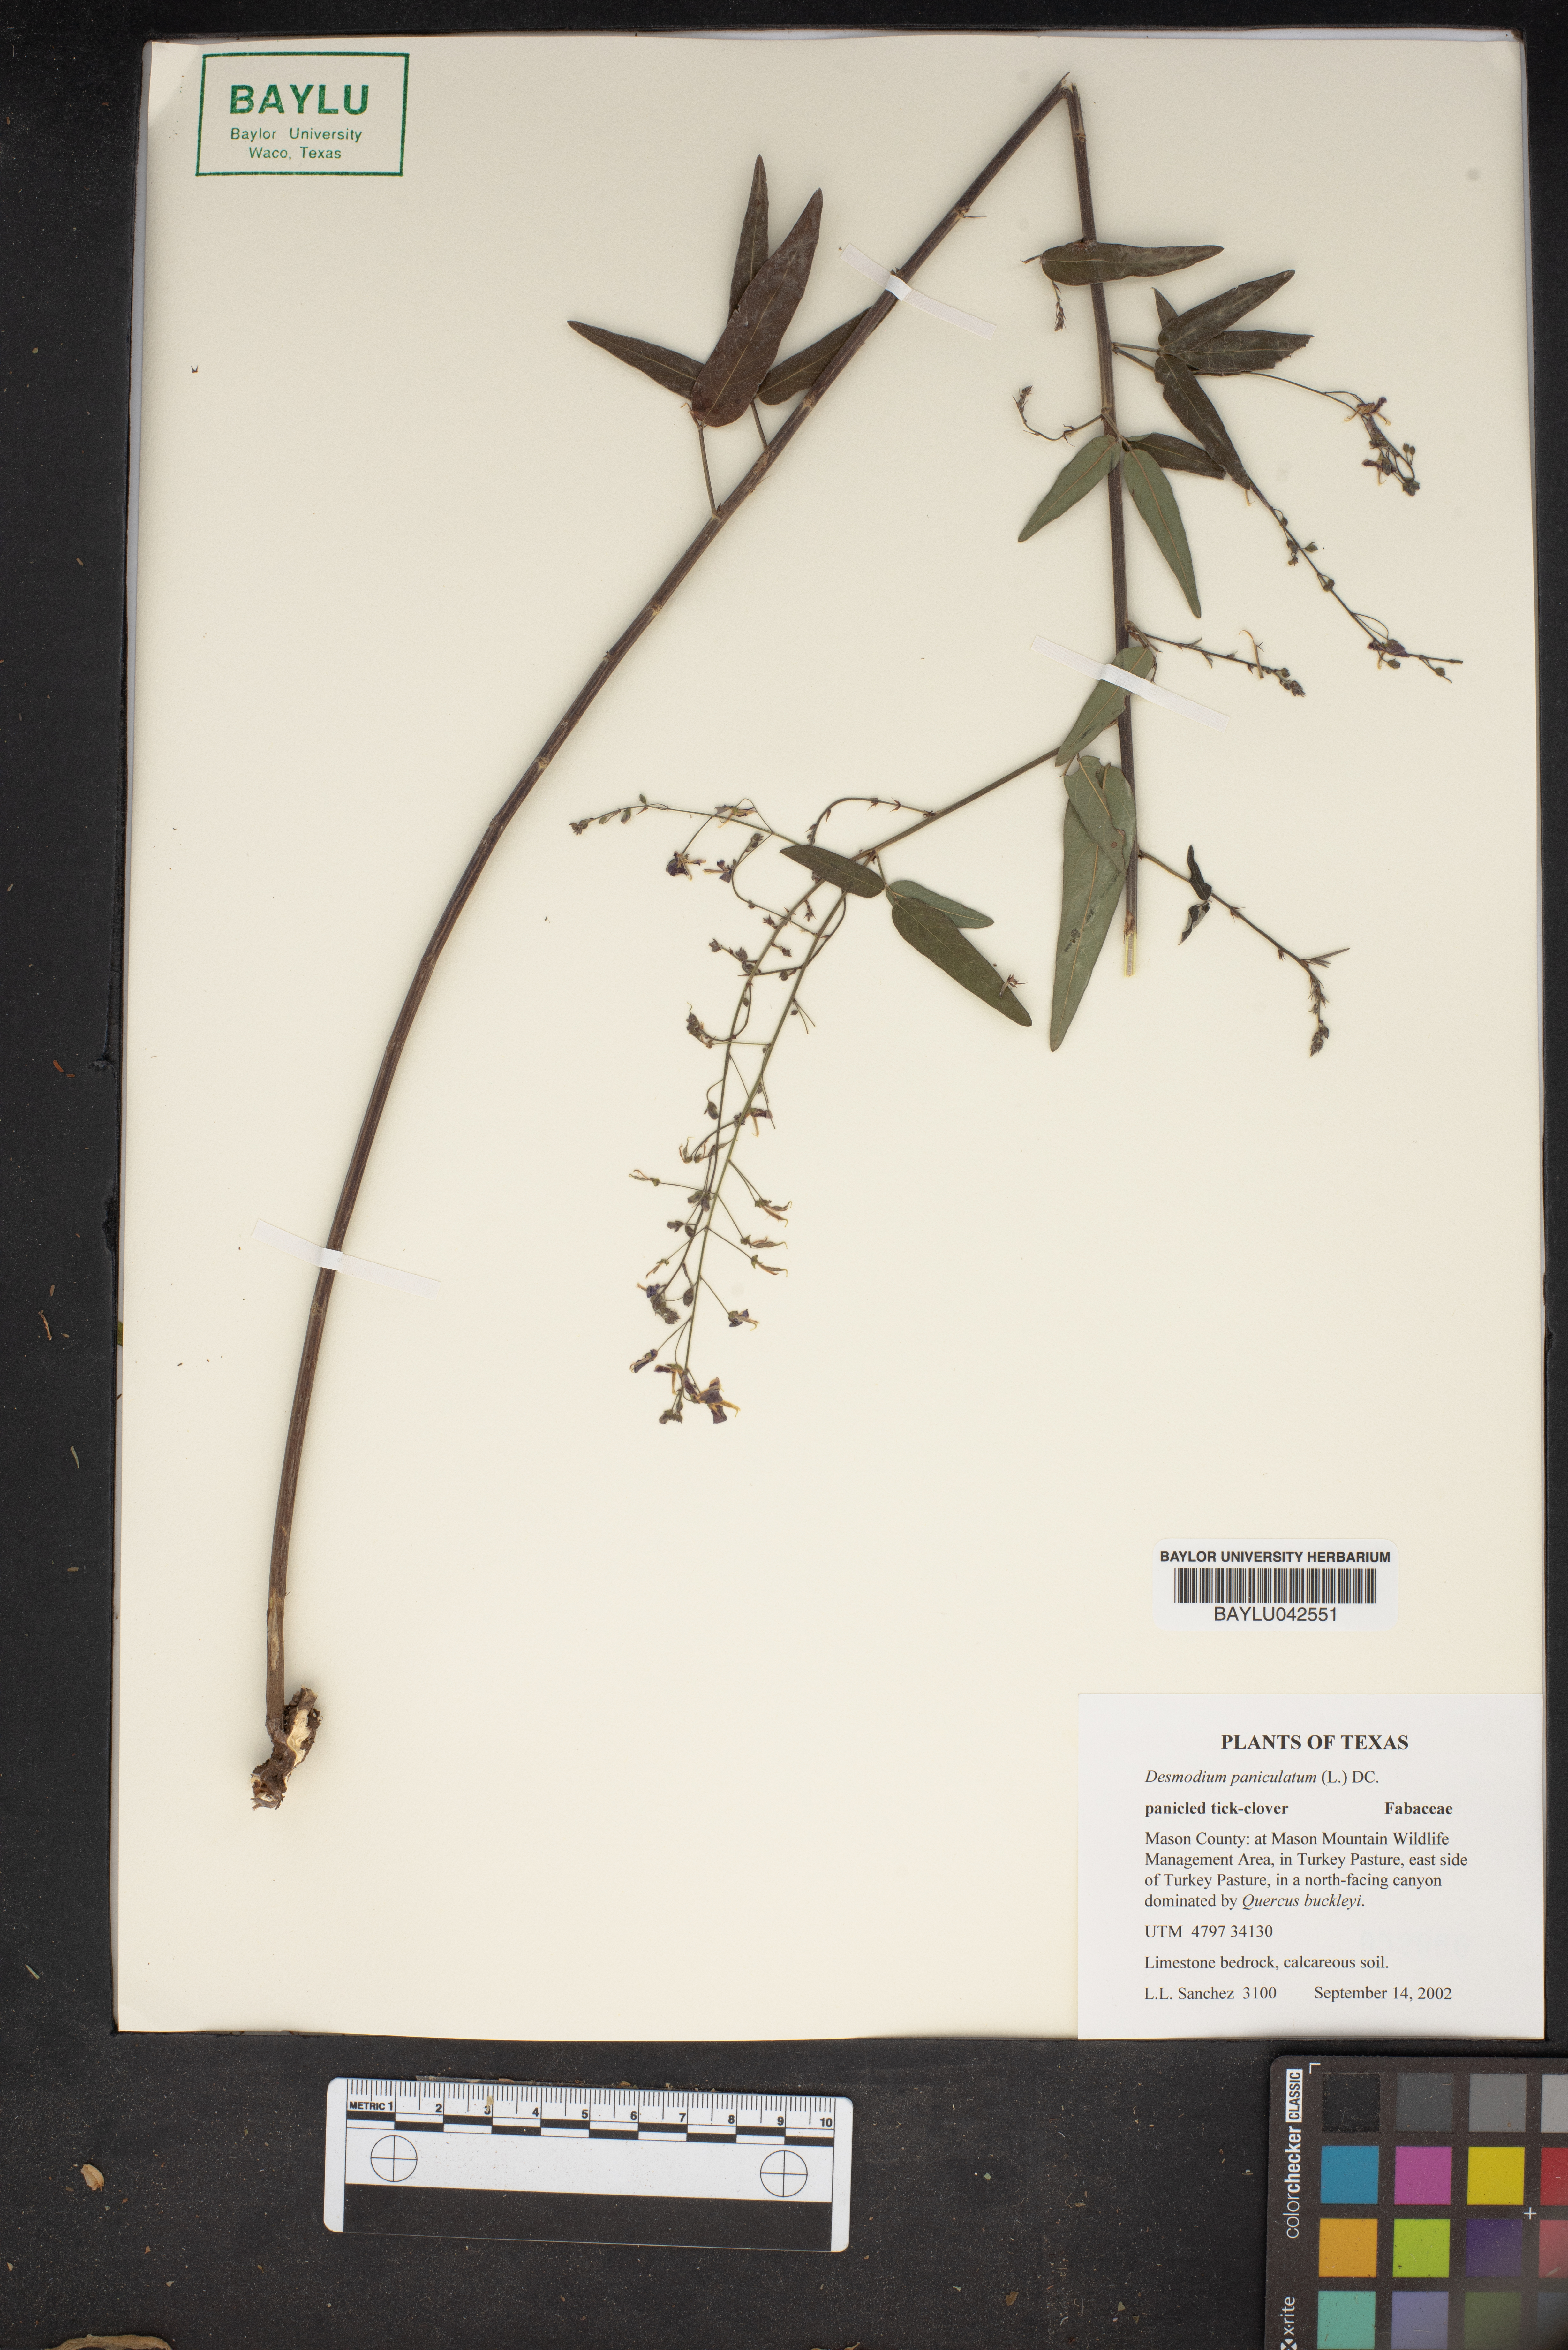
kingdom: Plantae
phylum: Tracheophyta
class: Magnoliopsida
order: Fabales
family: Fabaceae
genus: Desmodium
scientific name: Desmodium paniculatum
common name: Panicled tick-clover
